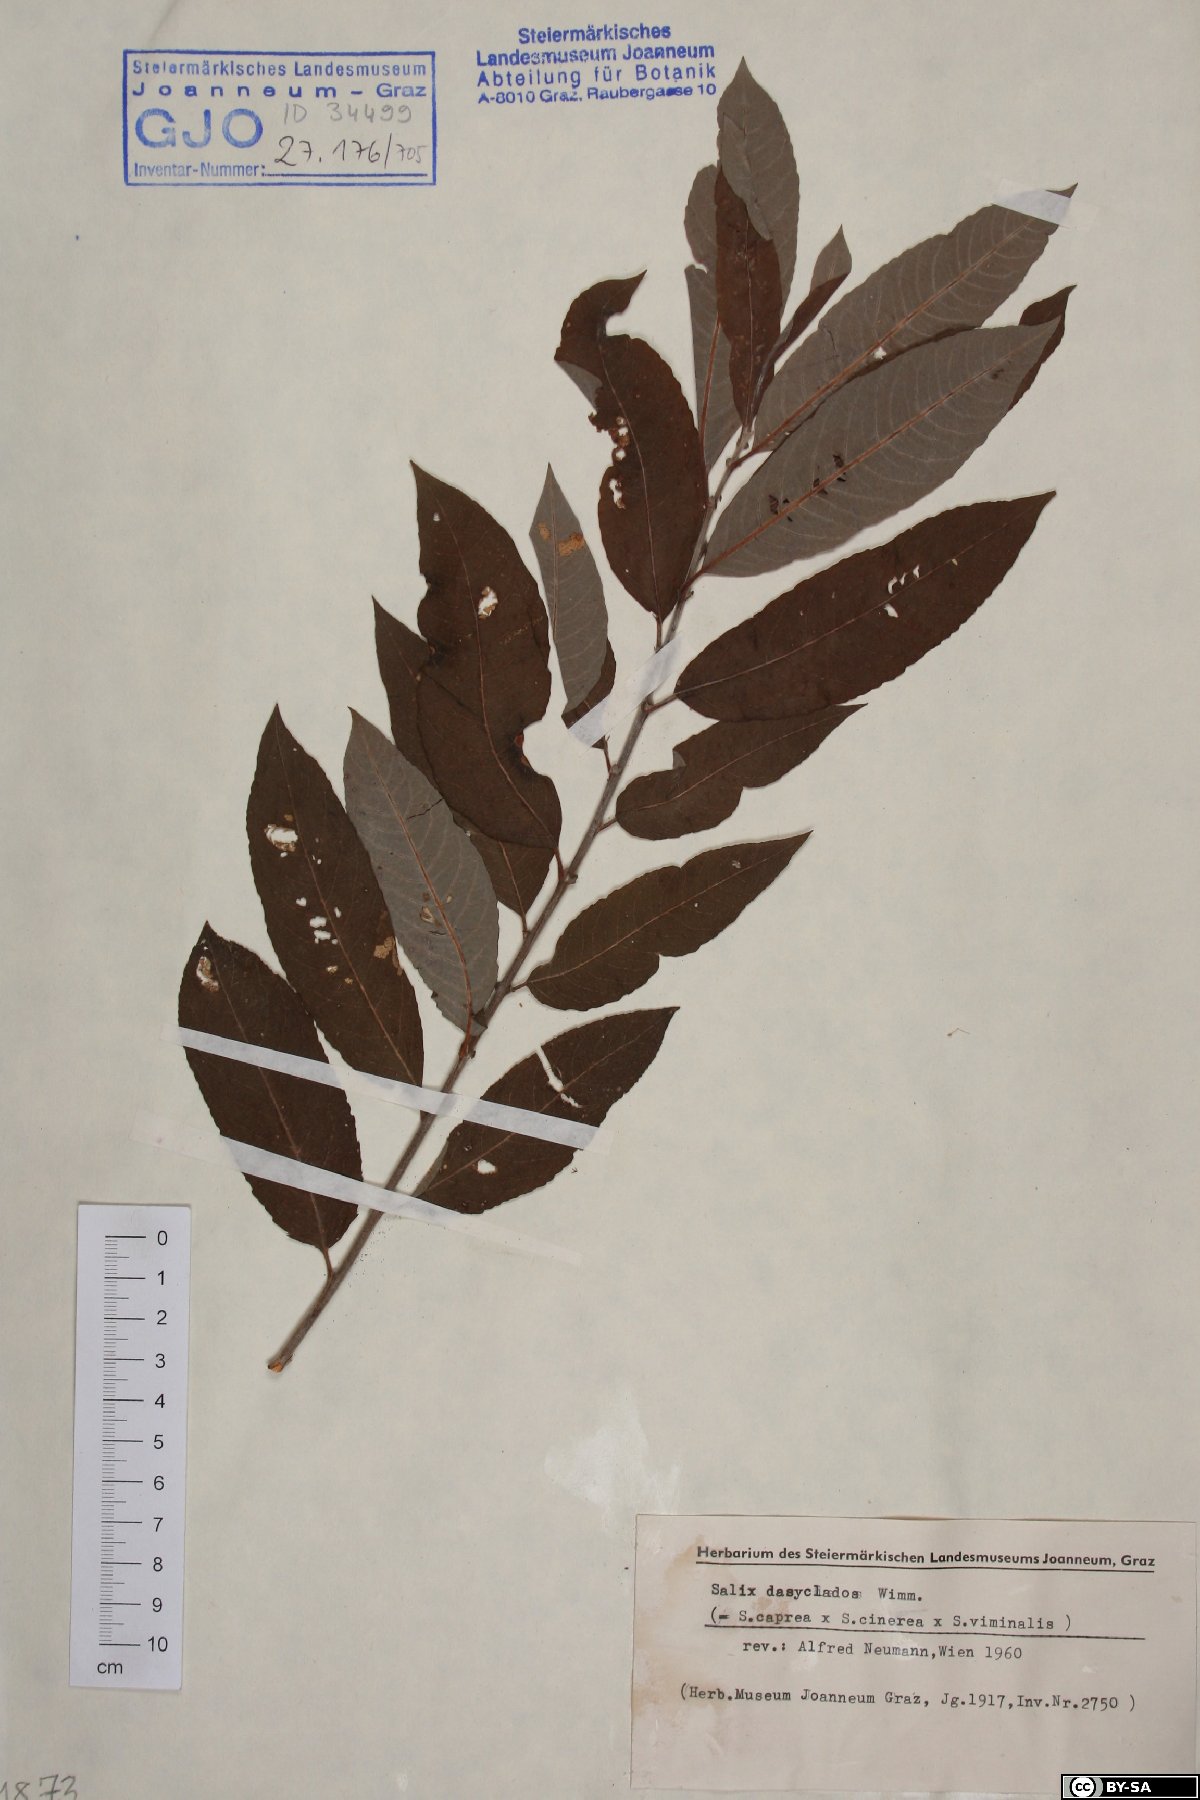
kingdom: Plantae
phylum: Tracheophyta
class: Magnoliopsida
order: Malpighiales
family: Salicaceae
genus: Salix
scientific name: Salix gmelinii
